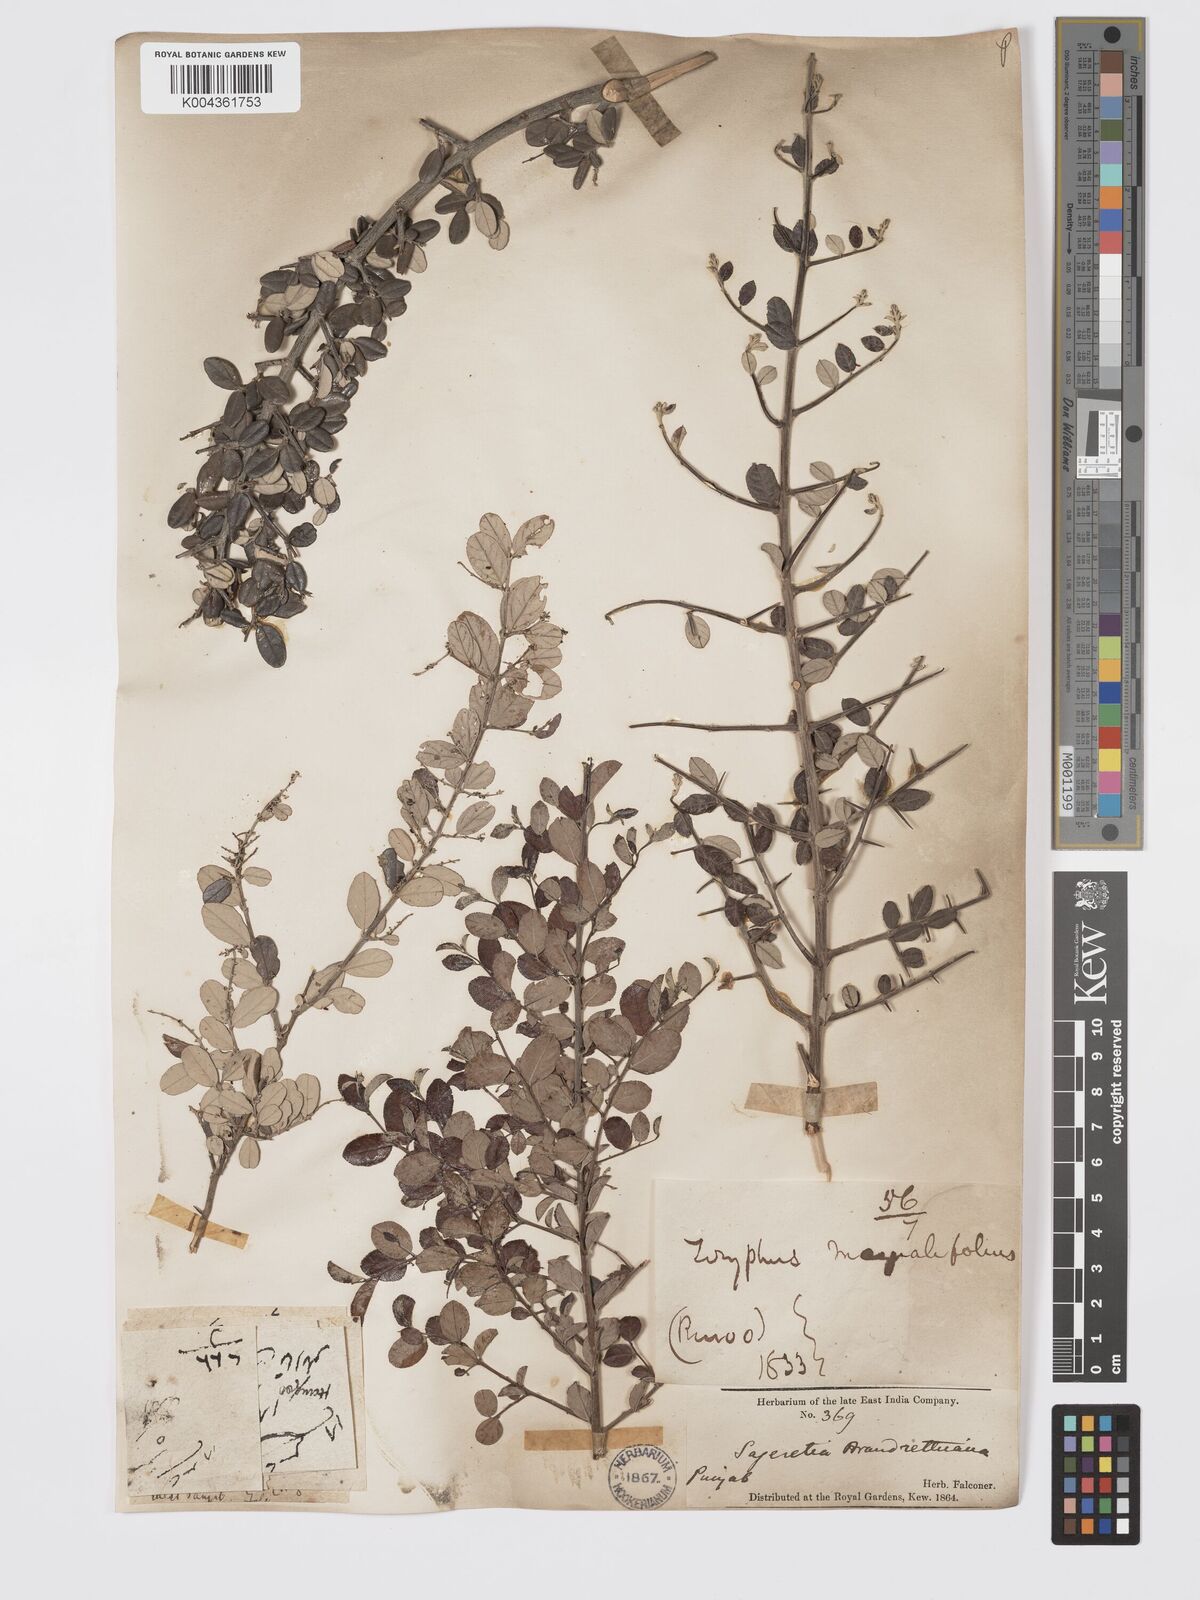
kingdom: Plantae
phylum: Tracheophyta
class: Magnoliopsida
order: Rosales
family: Rhamnaceae
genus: Sageretia
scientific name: Sageretia brandrethiana
